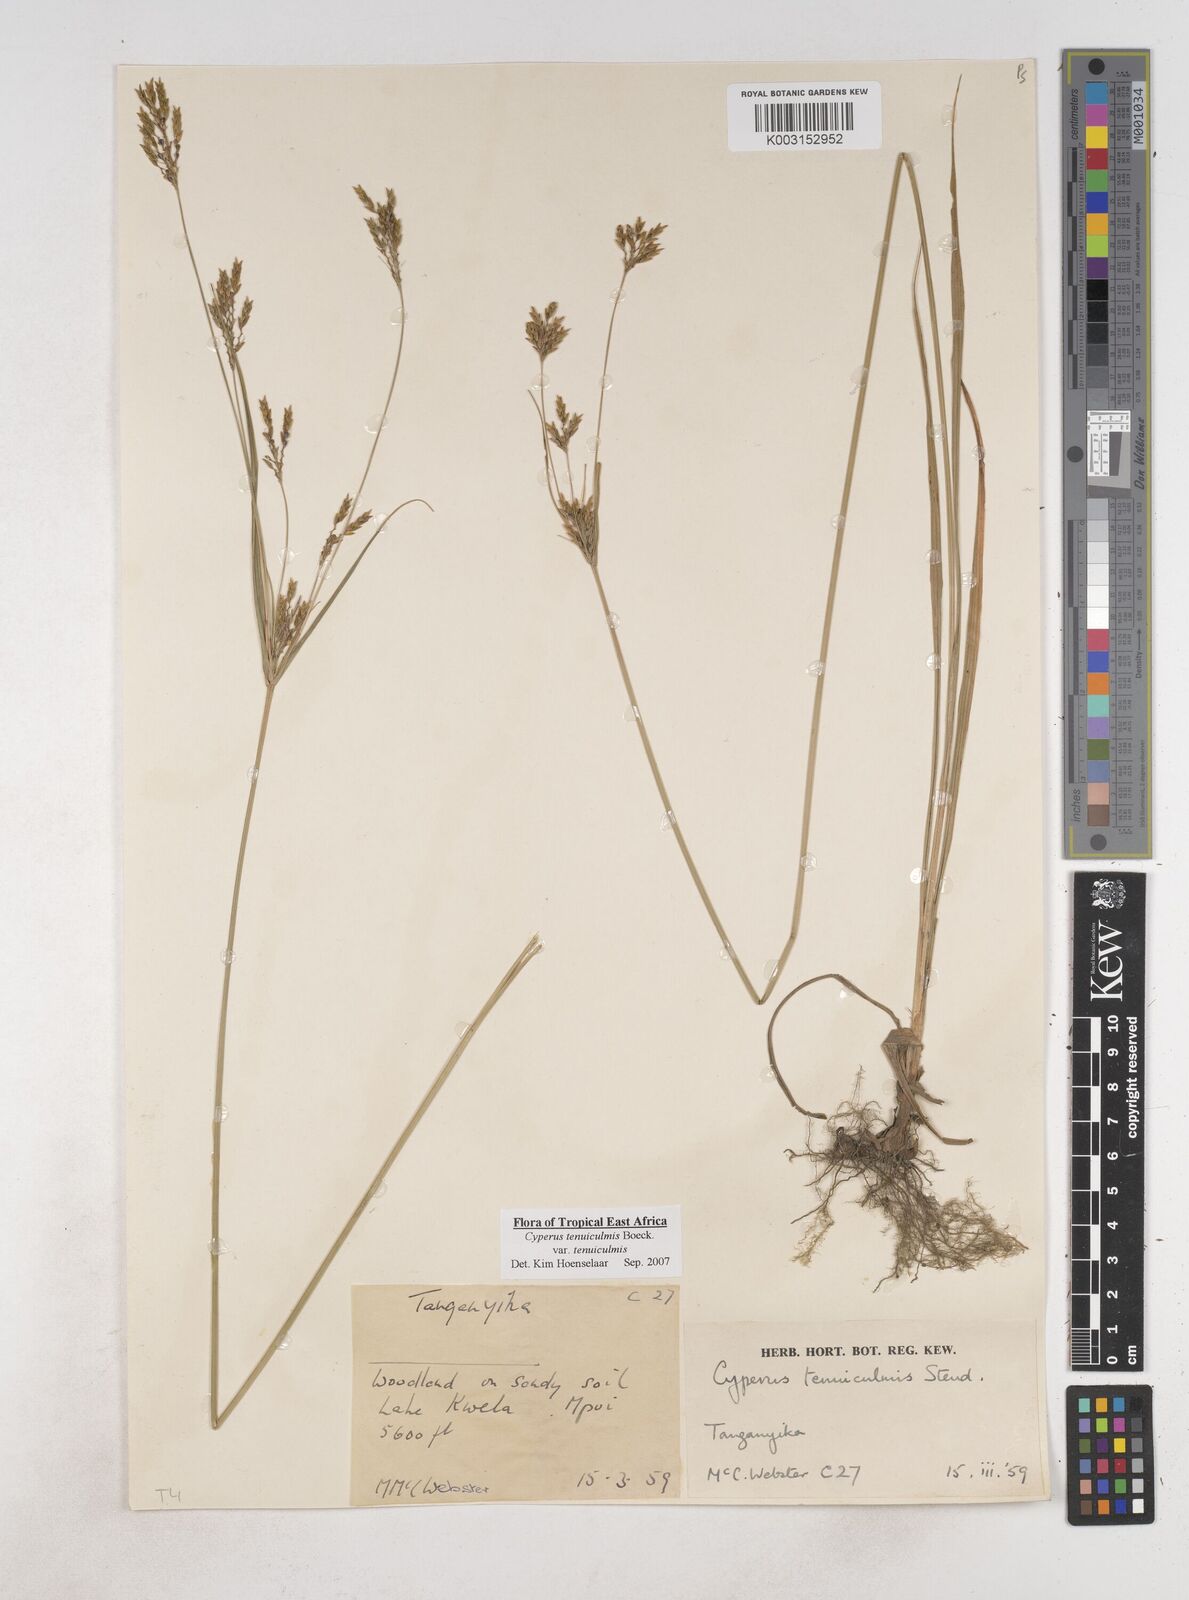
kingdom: Plantae
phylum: Tracheophyta
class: Liliopsida
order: Poales
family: Cyperaceae
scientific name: Cyperaceae
